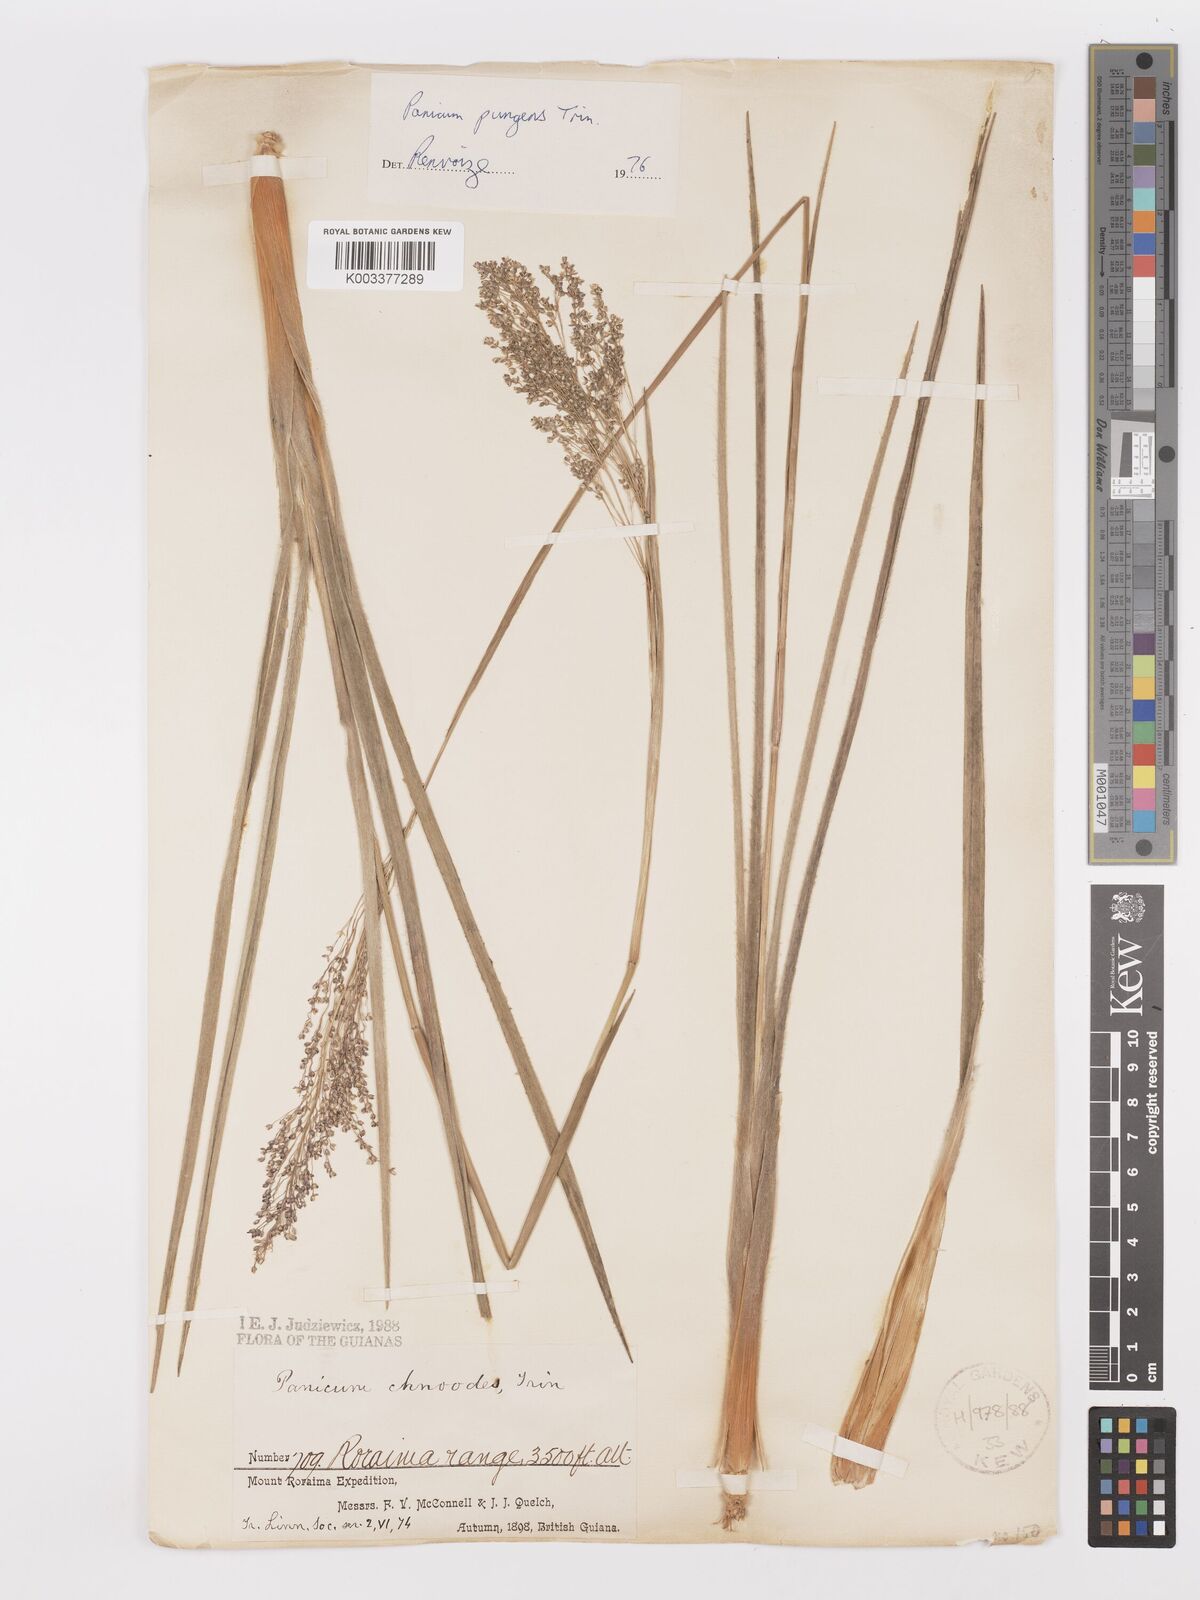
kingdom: Plantae
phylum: Tracheophyta
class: Liliopsida
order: Poales
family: Poaceae
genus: Apochloa
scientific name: Apochloa chnoodes
